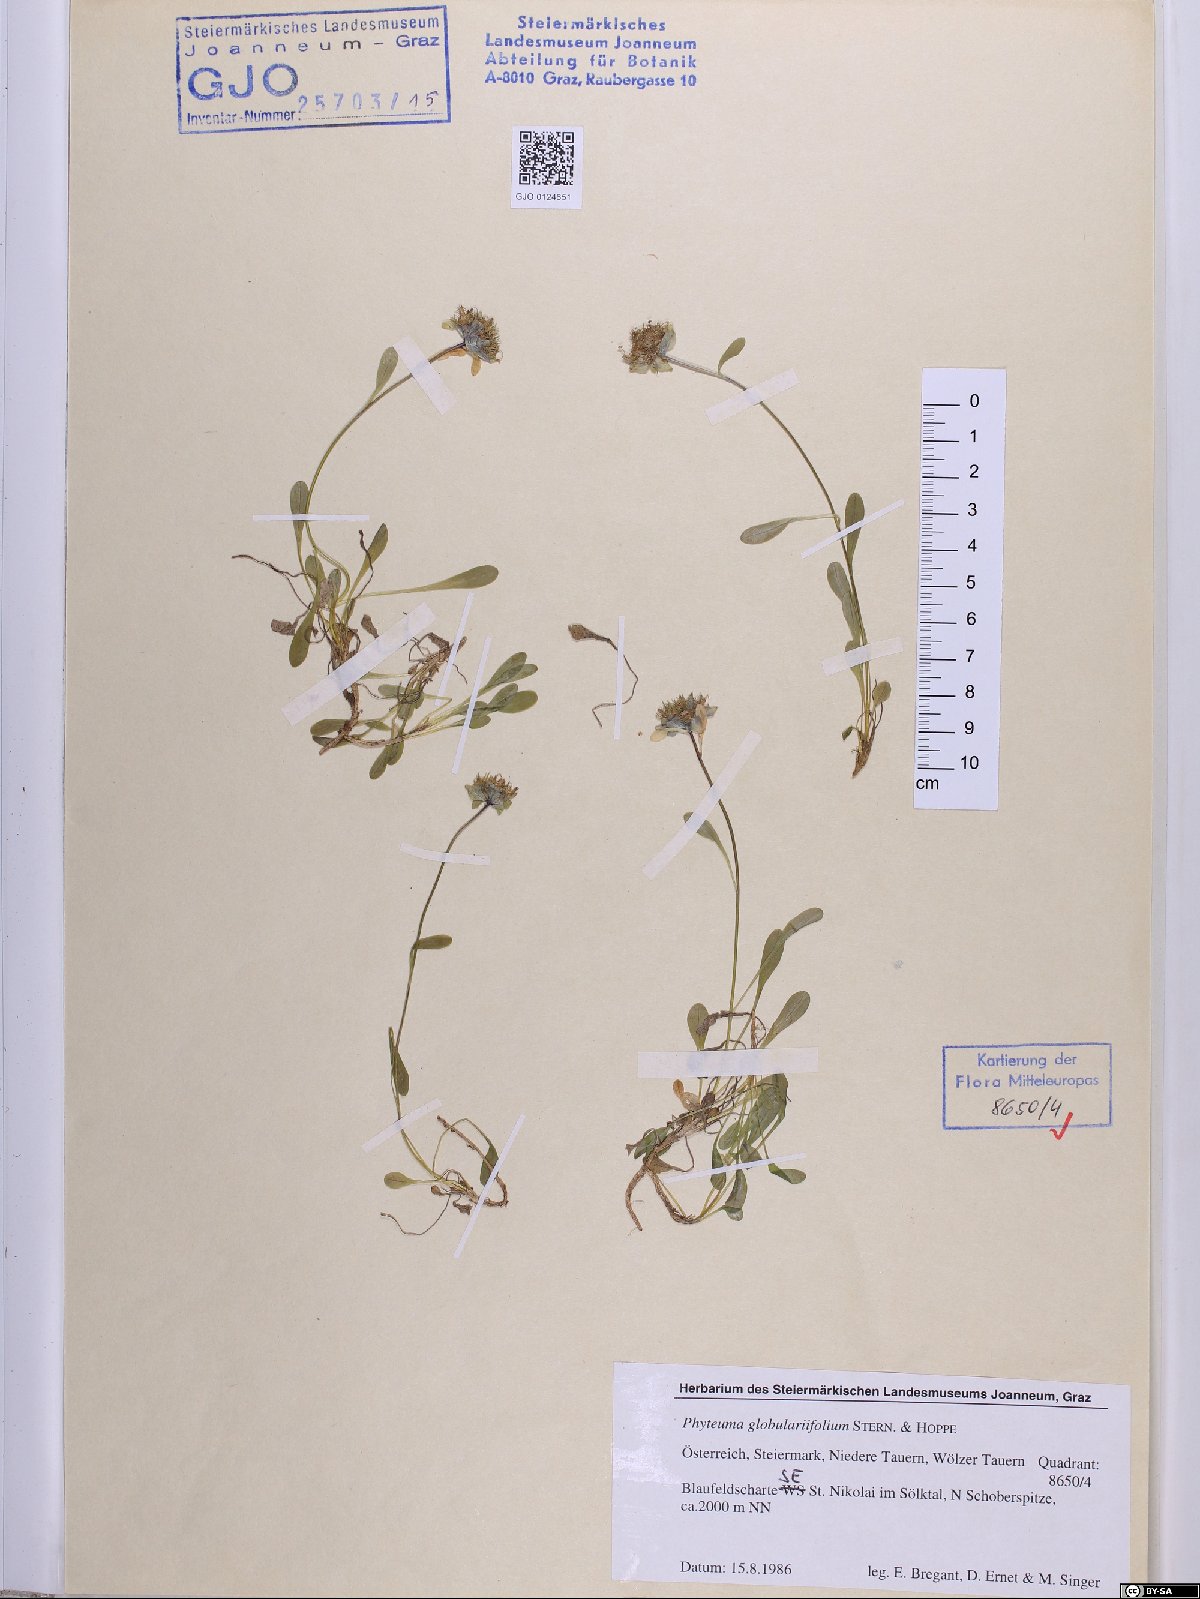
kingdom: Plantae
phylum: Tracheophyta
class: Magnoliopsida
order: Asterales
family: Campanulaceae
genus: Phyteuma
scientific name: Phyteuma globulariifolium
